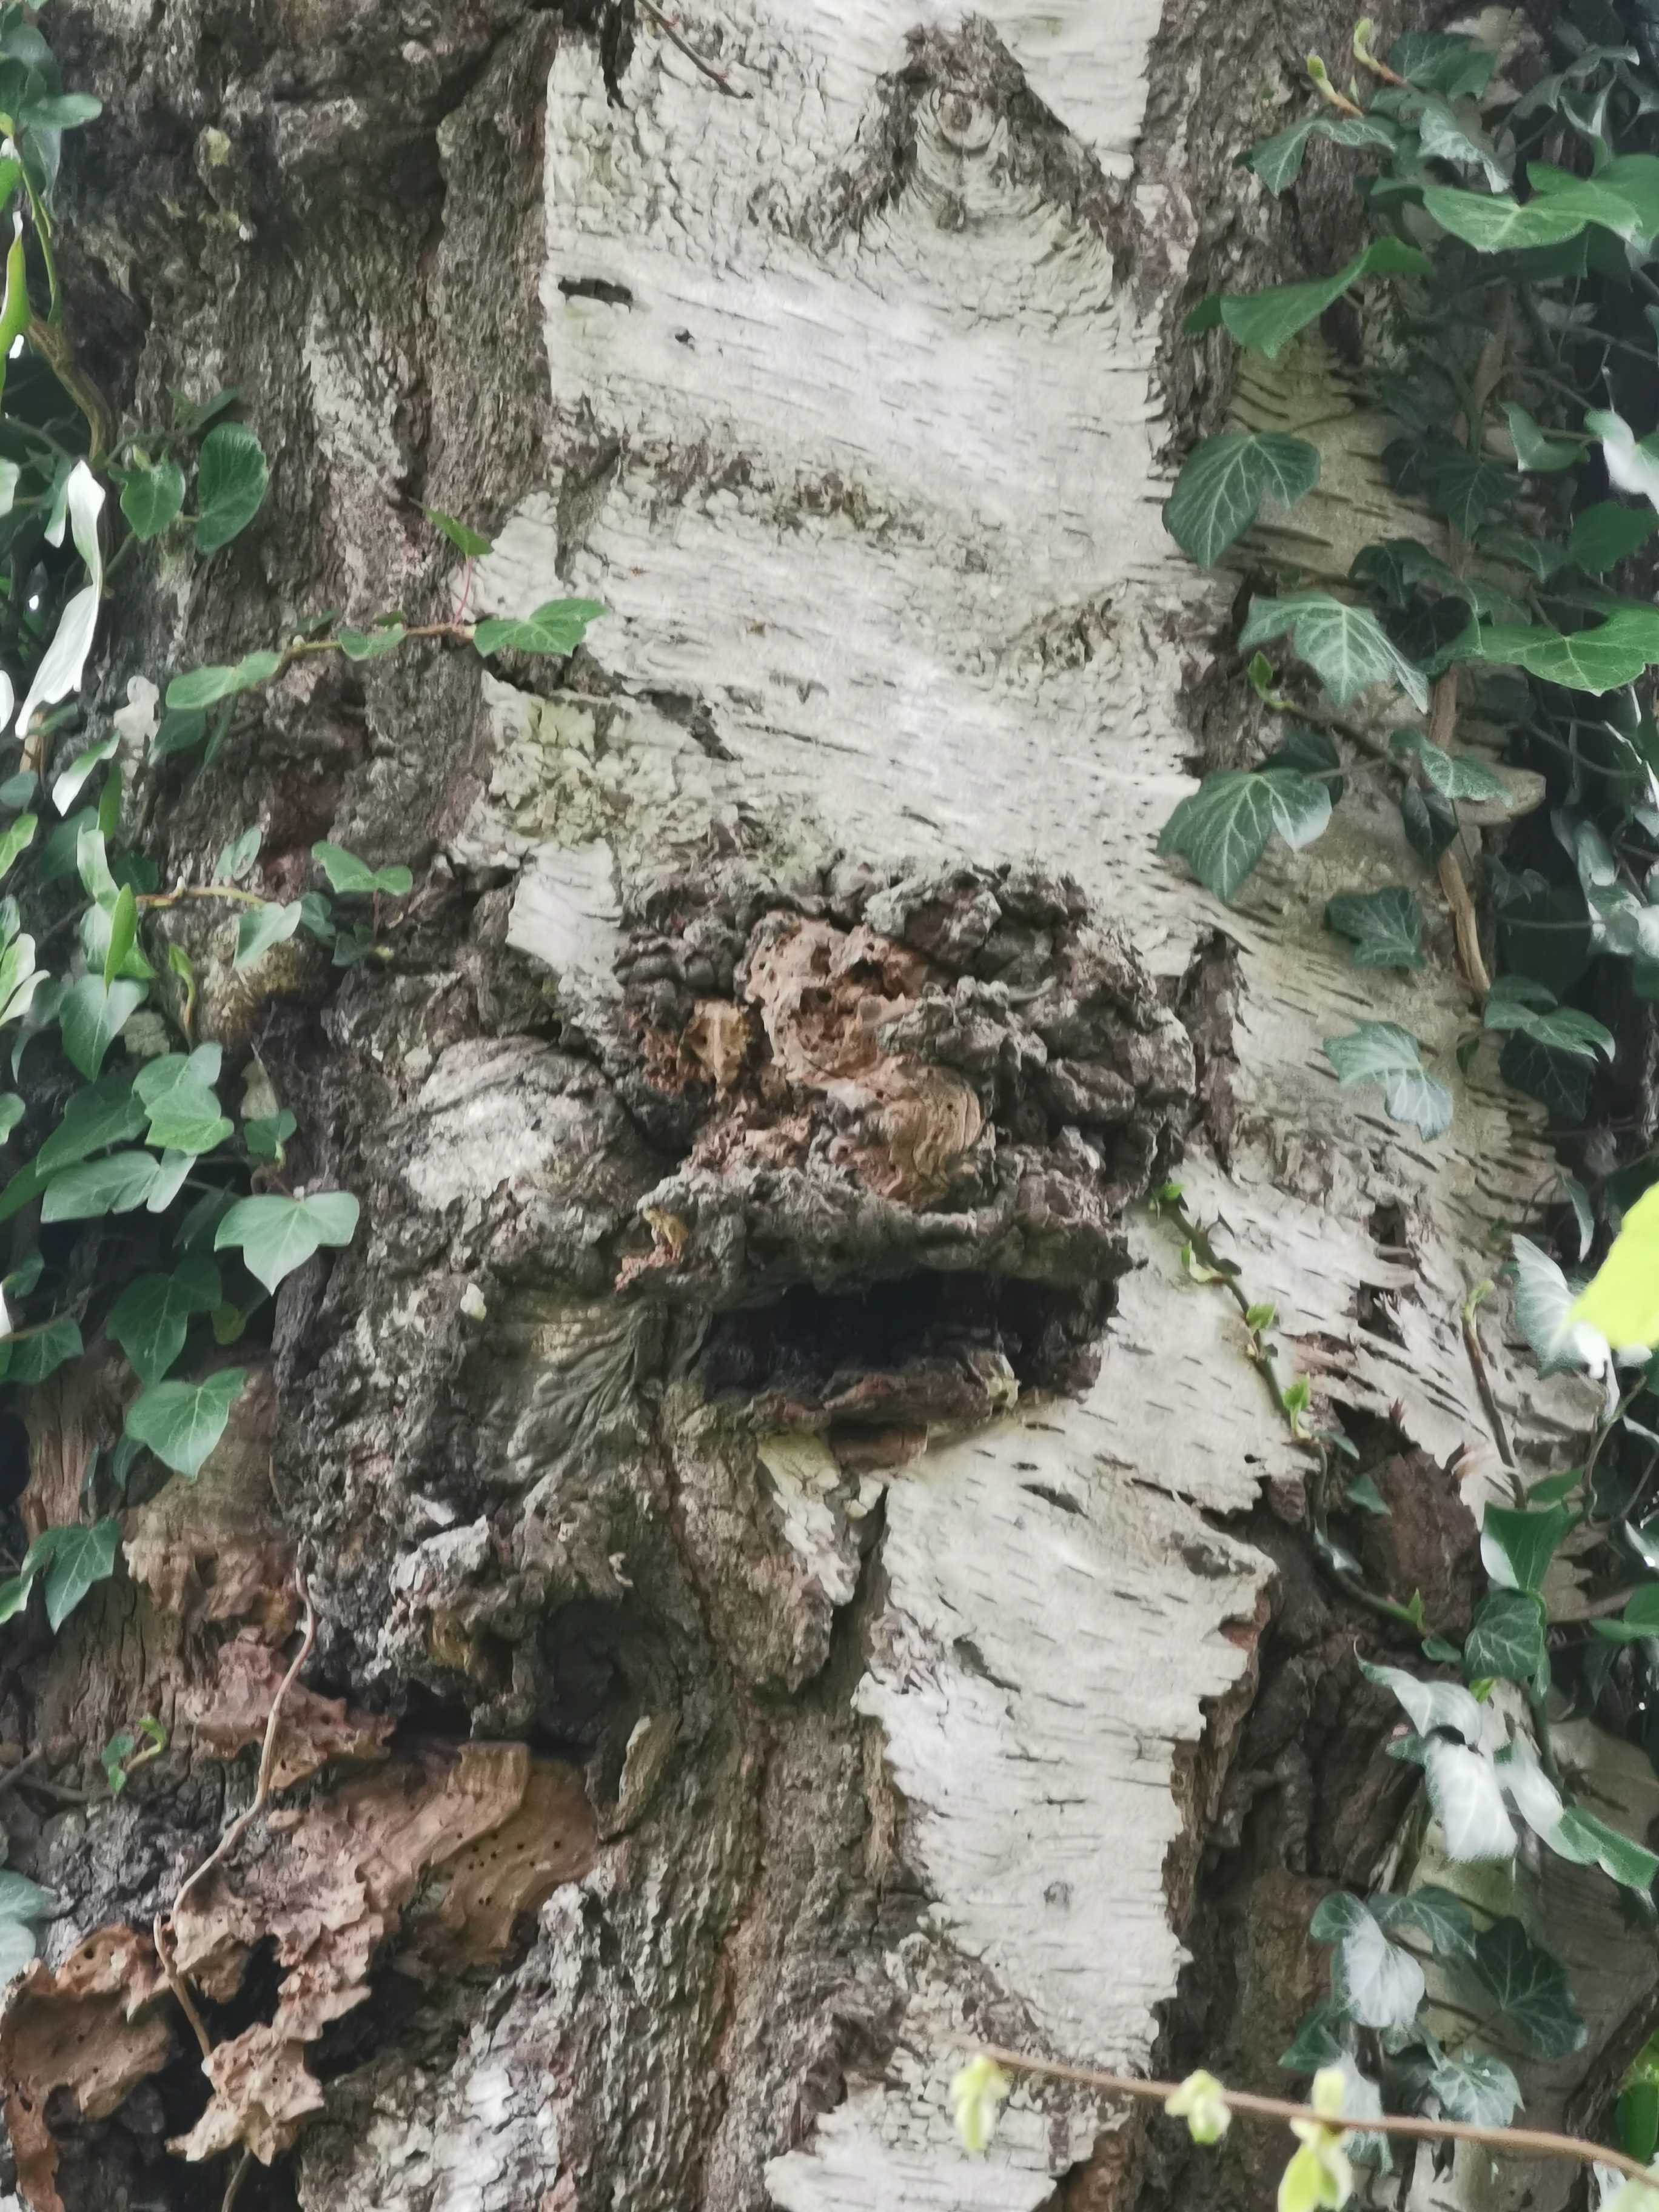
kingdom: Fungi
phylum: Ascomycota
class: Taphrinomycetes
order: Taphrinales
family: Taphrinaceae
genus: Taphrina
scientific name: Taphrina betulina
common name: hekse-sækdug
